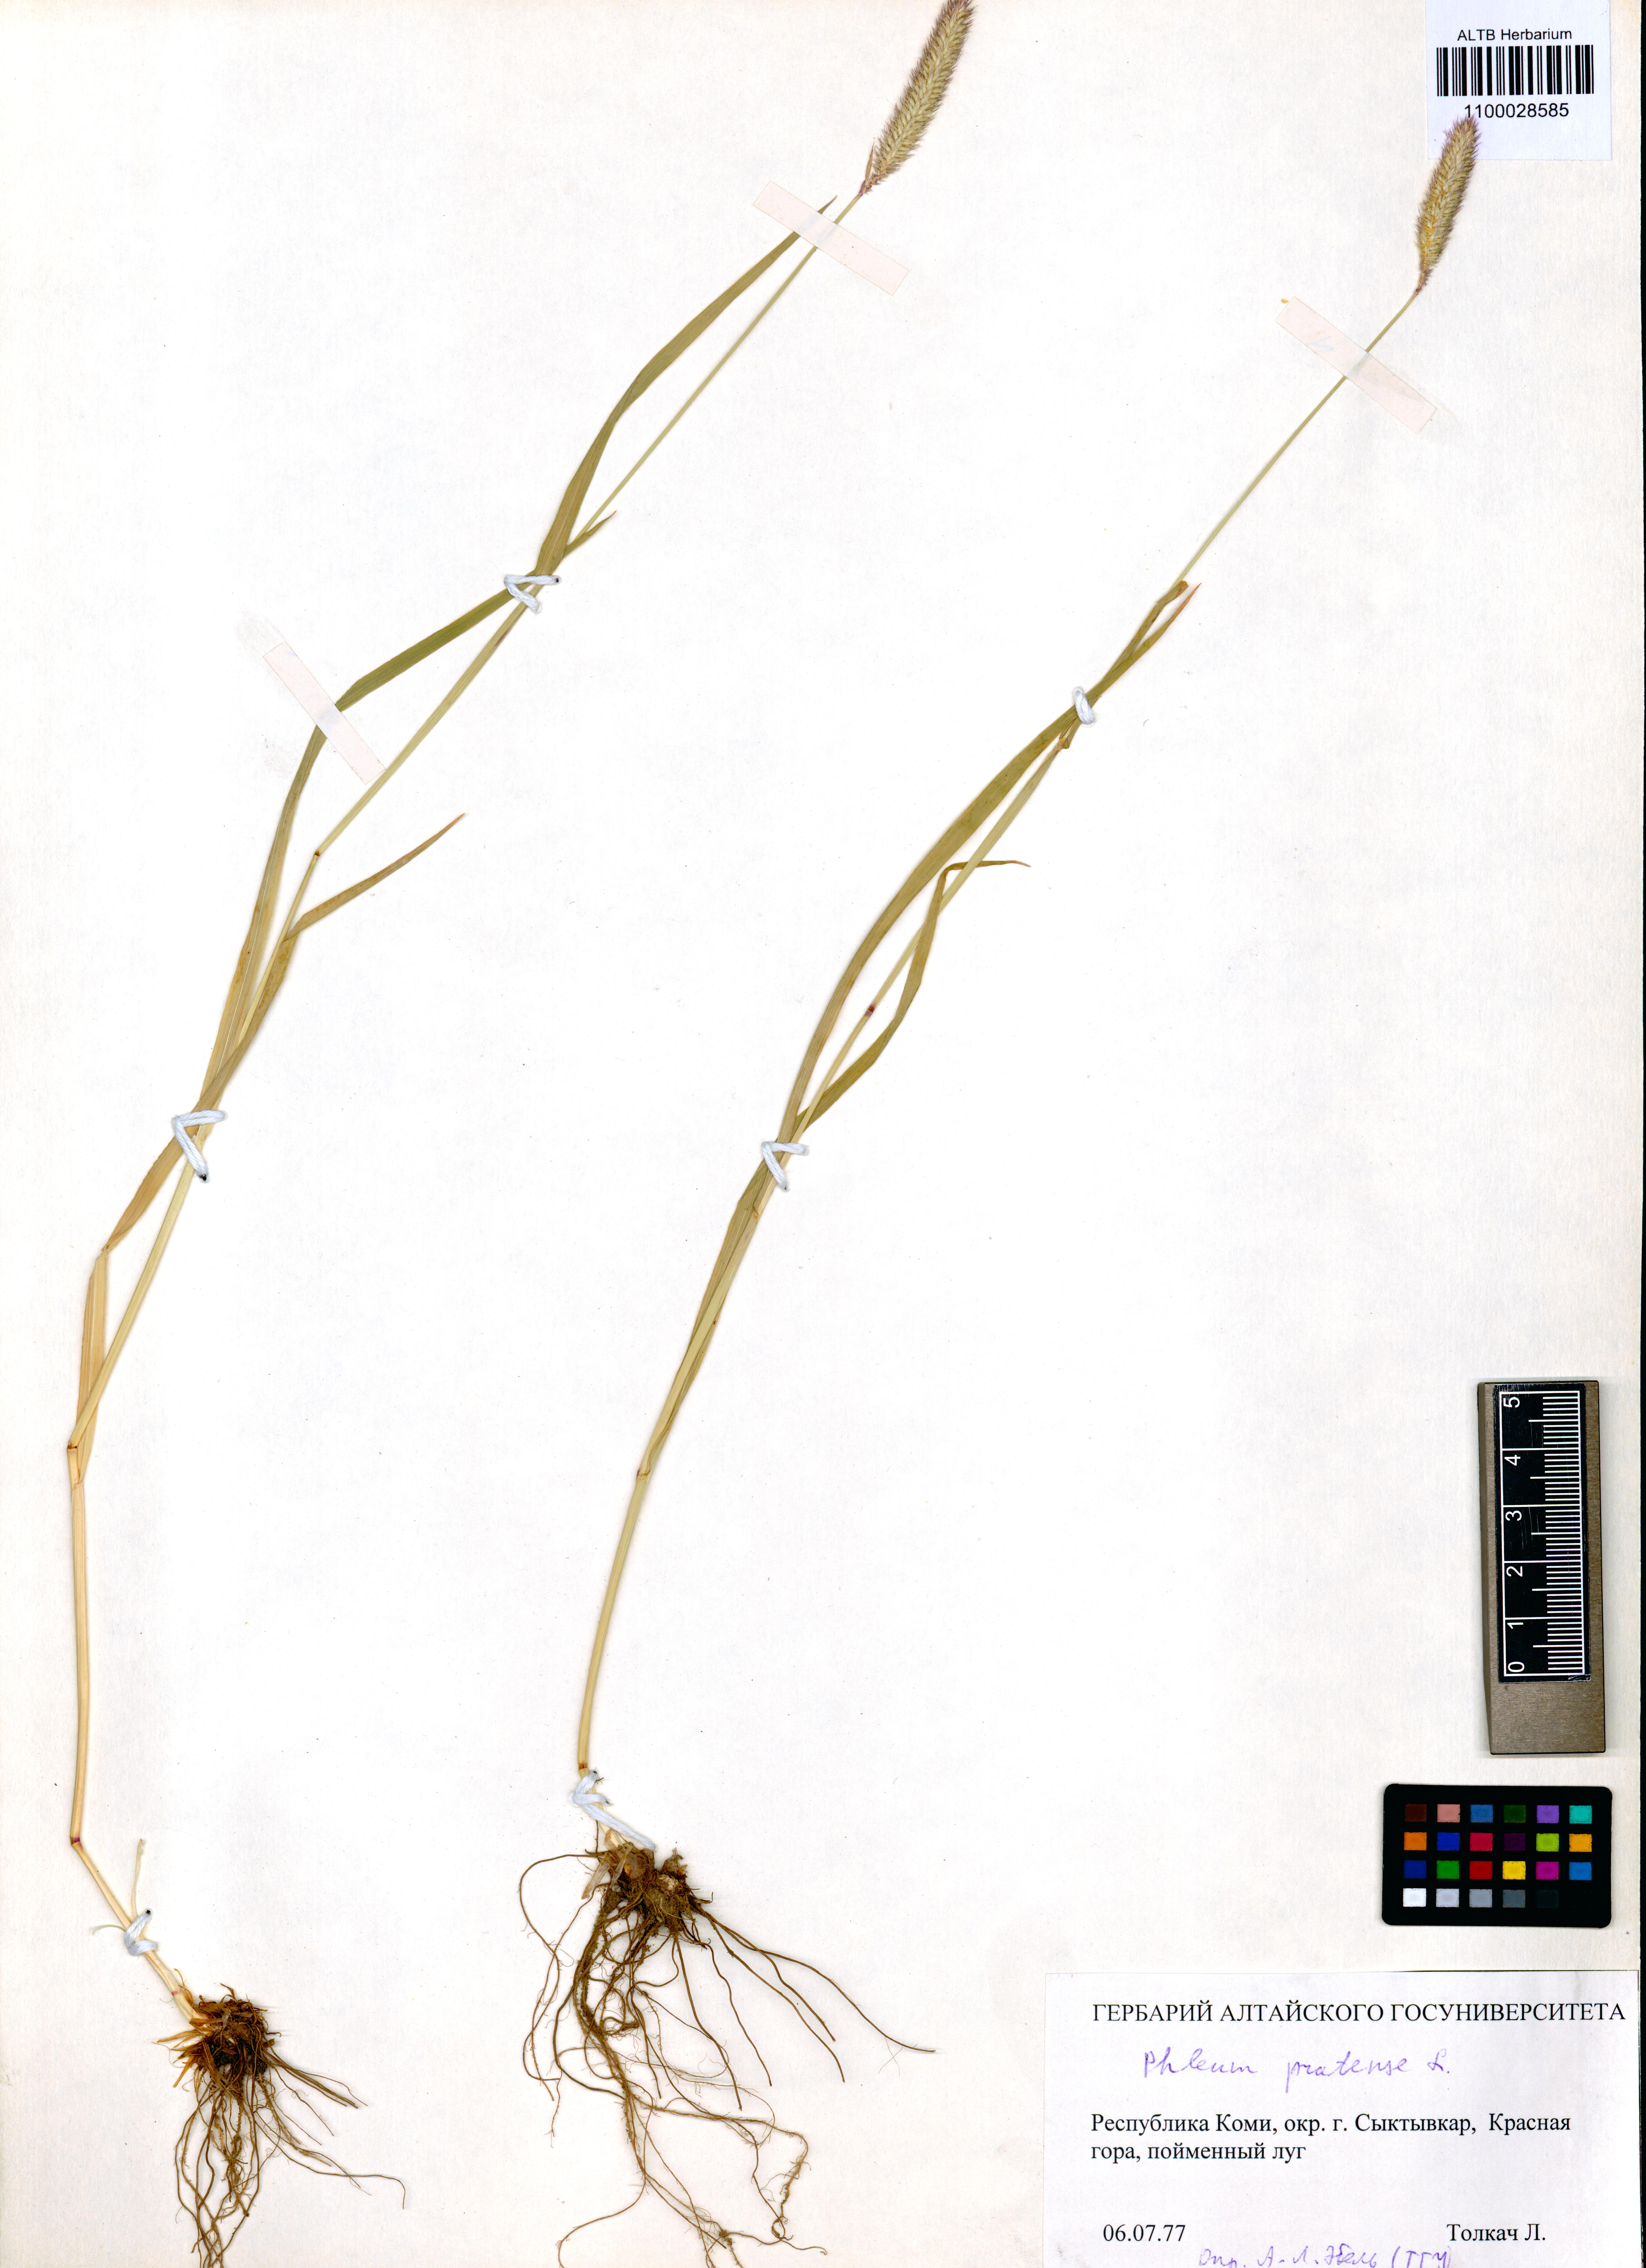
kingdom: Plantae
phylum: Tracheophyta
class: Liliopsida
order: Poales
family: Poaceae
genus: Phleum
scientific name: Phleum pratense
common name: Timothy grass
